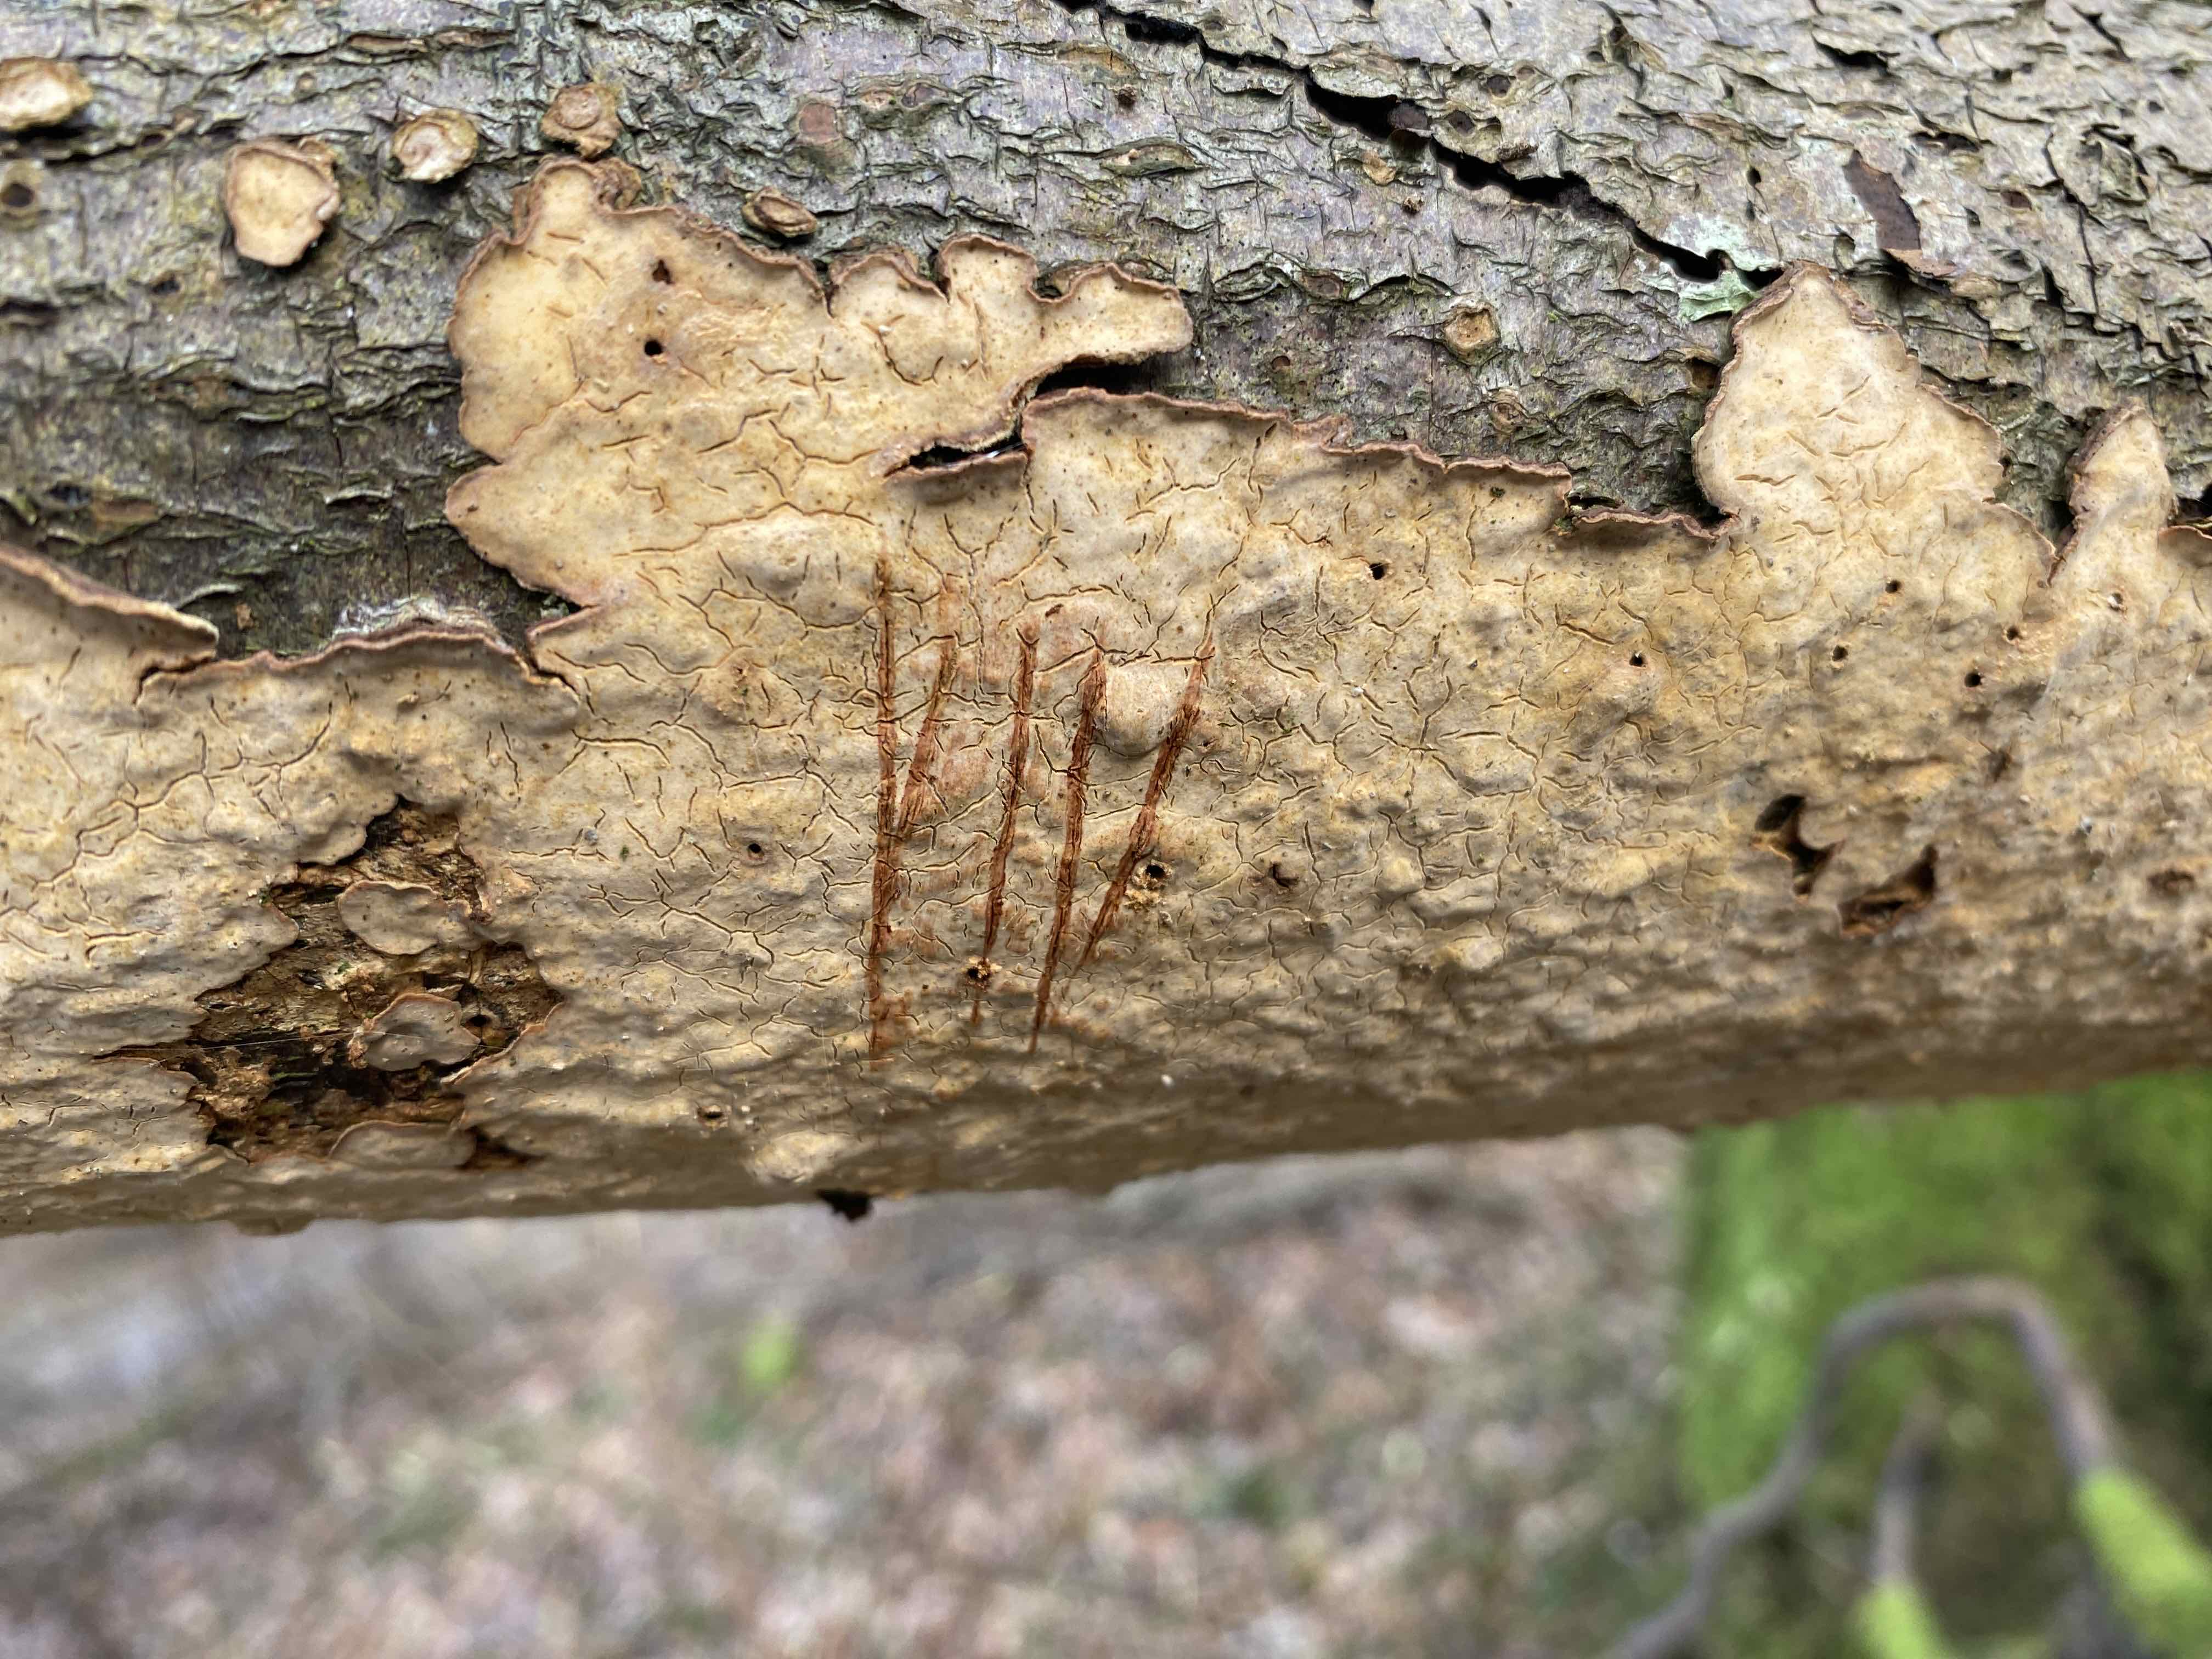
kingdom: Fungi
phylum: Basidiomycota
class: Agaricomycetes
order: Russulales
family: Stereaceae
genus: Stereum
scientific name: Stereum rugosum
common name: rynket lædersvamp
